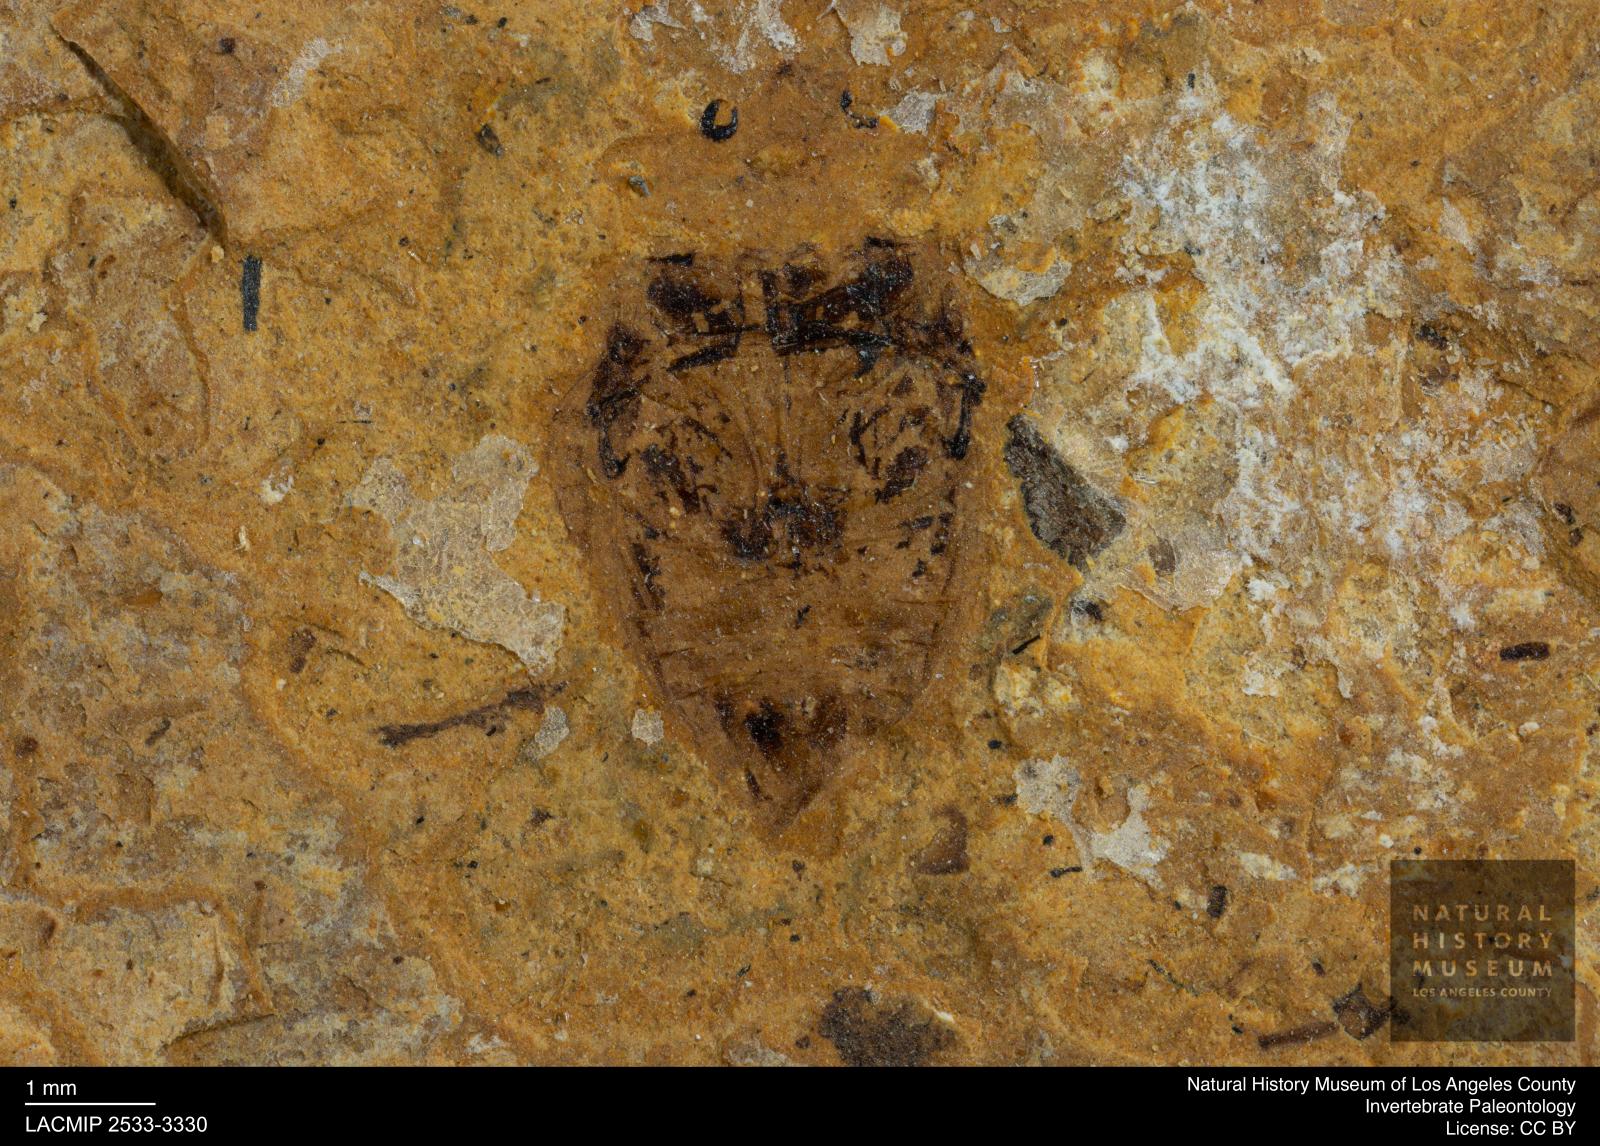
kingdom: Animalia
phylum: Arthropoda
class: Insecta
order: Coleoptera
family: Dytiscidae
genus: Laccophilus
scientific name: Laccophilus Palaeogyrinus strigatus
